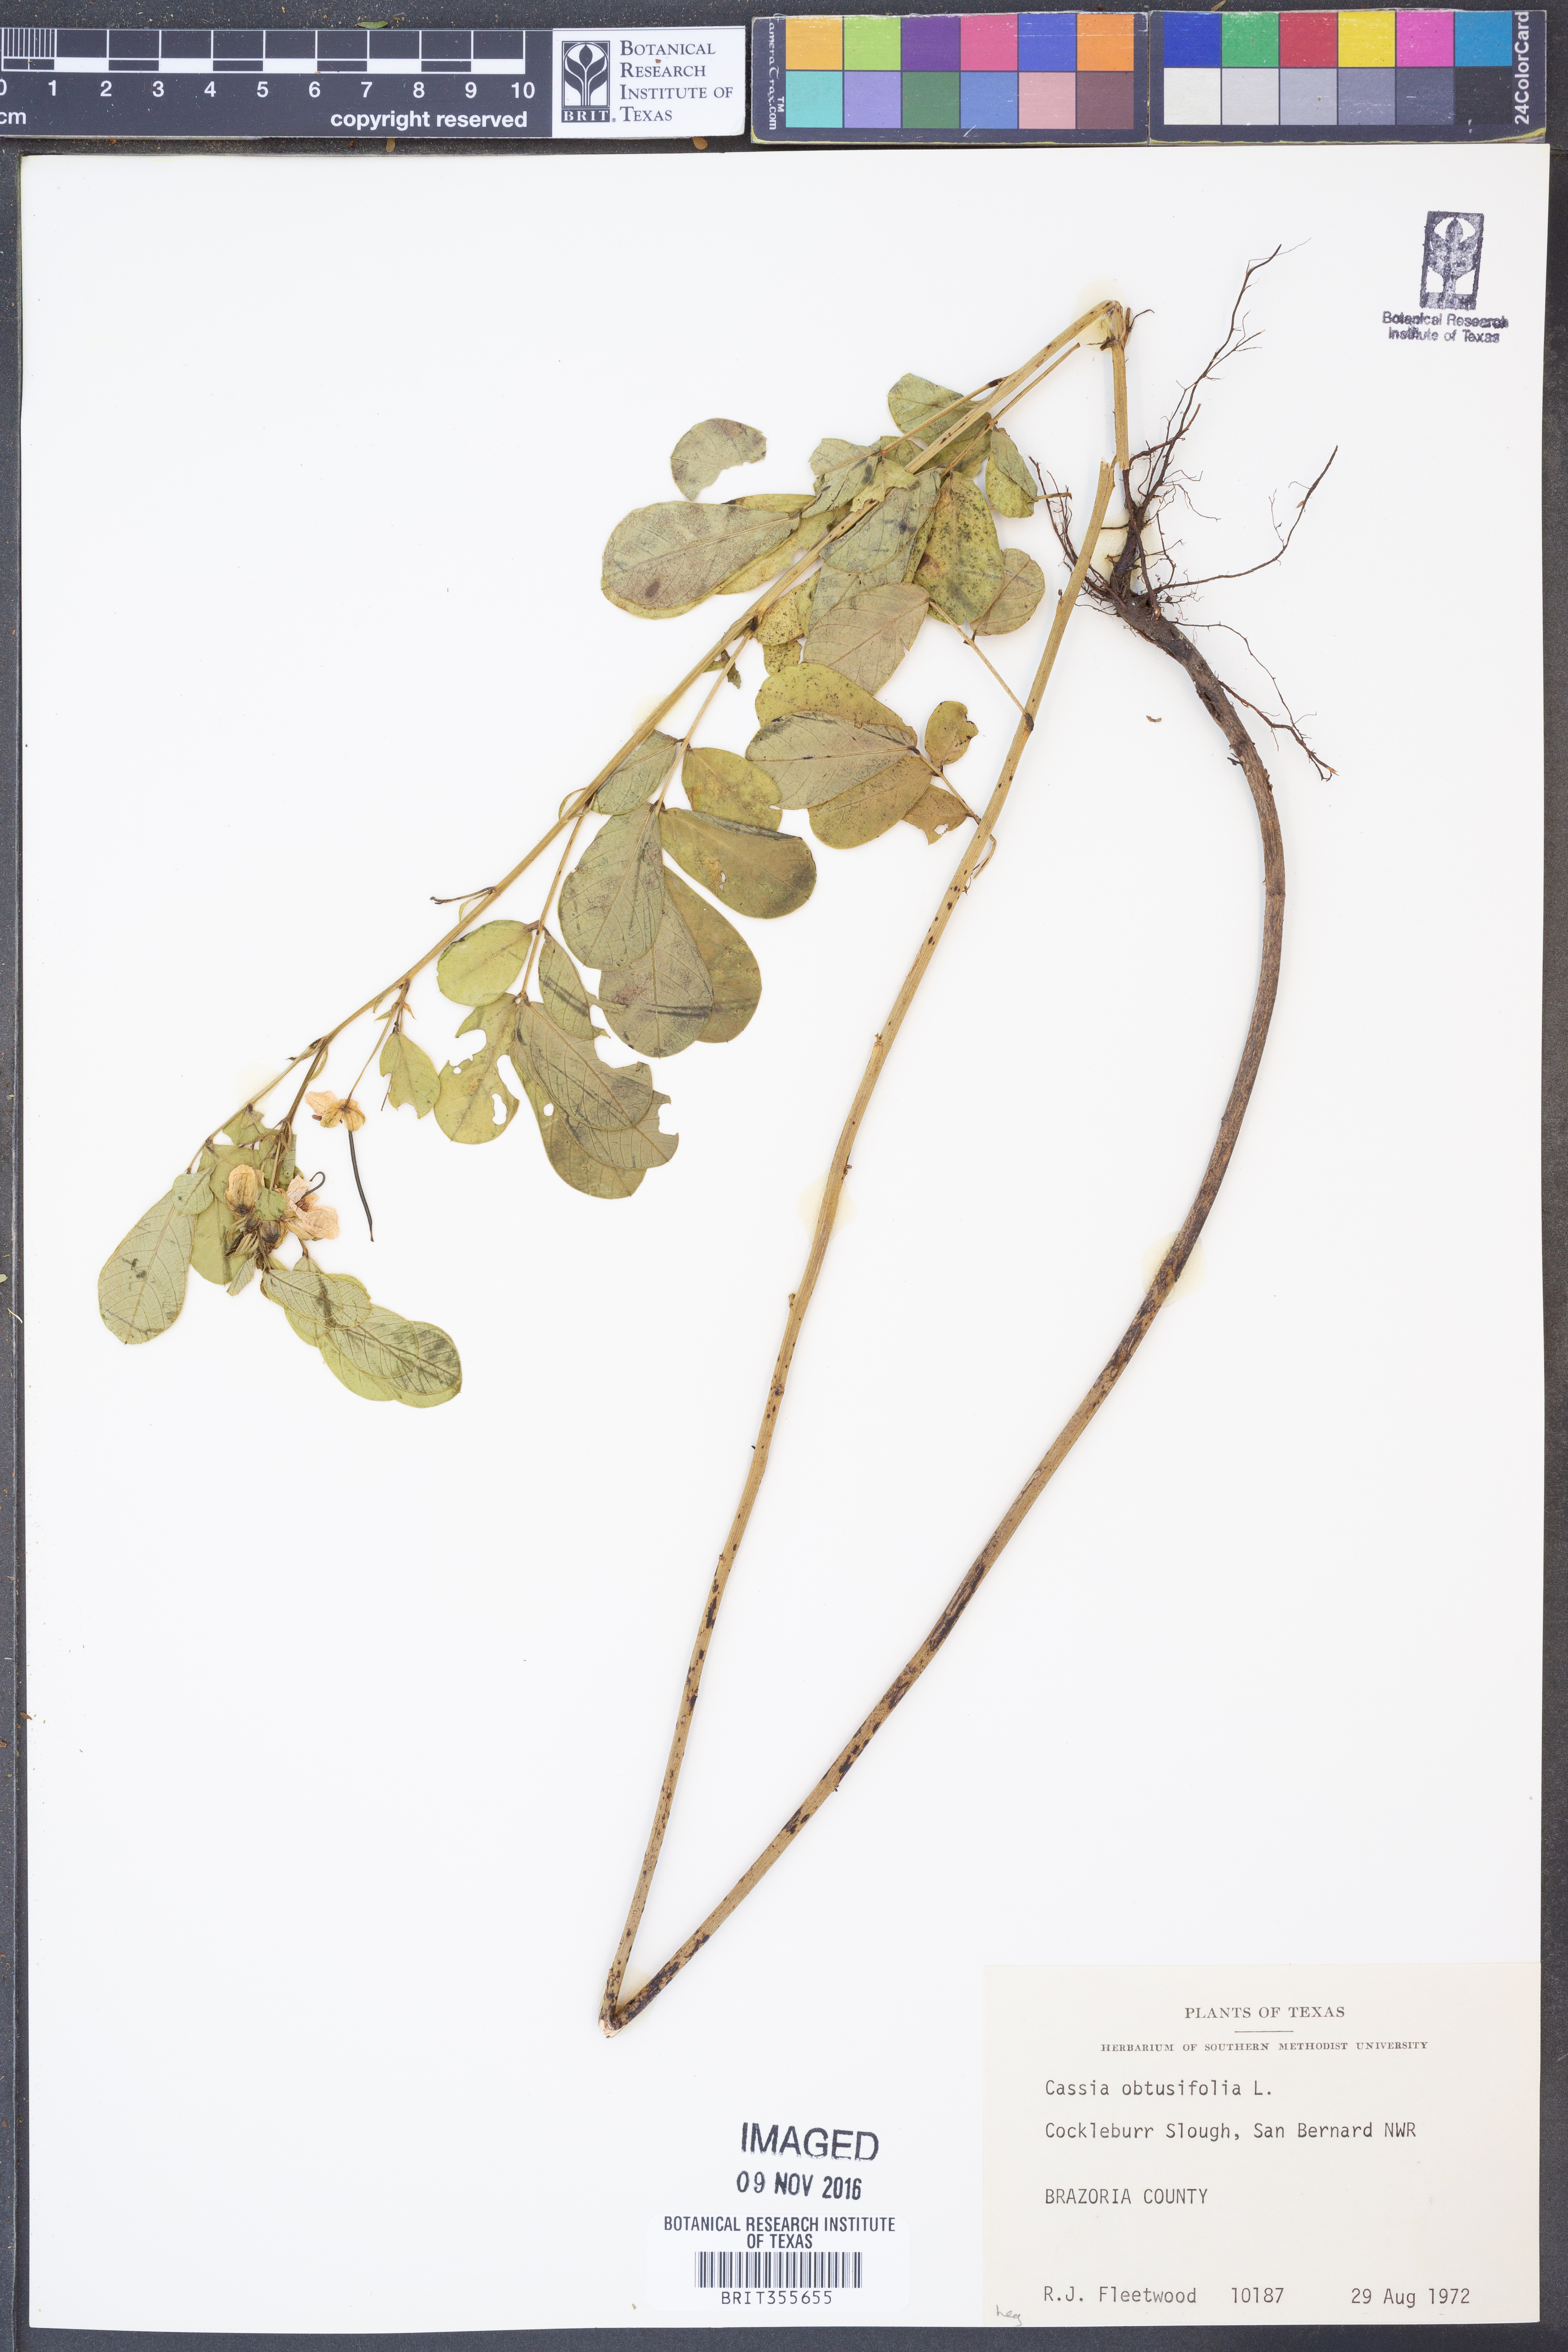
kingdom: Plantae
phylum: Tracheophyta
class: Magnoliopsida
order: Fabales
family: Fabaceae
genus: Senna
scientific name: Senna obtusifolia
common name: Java-bean
